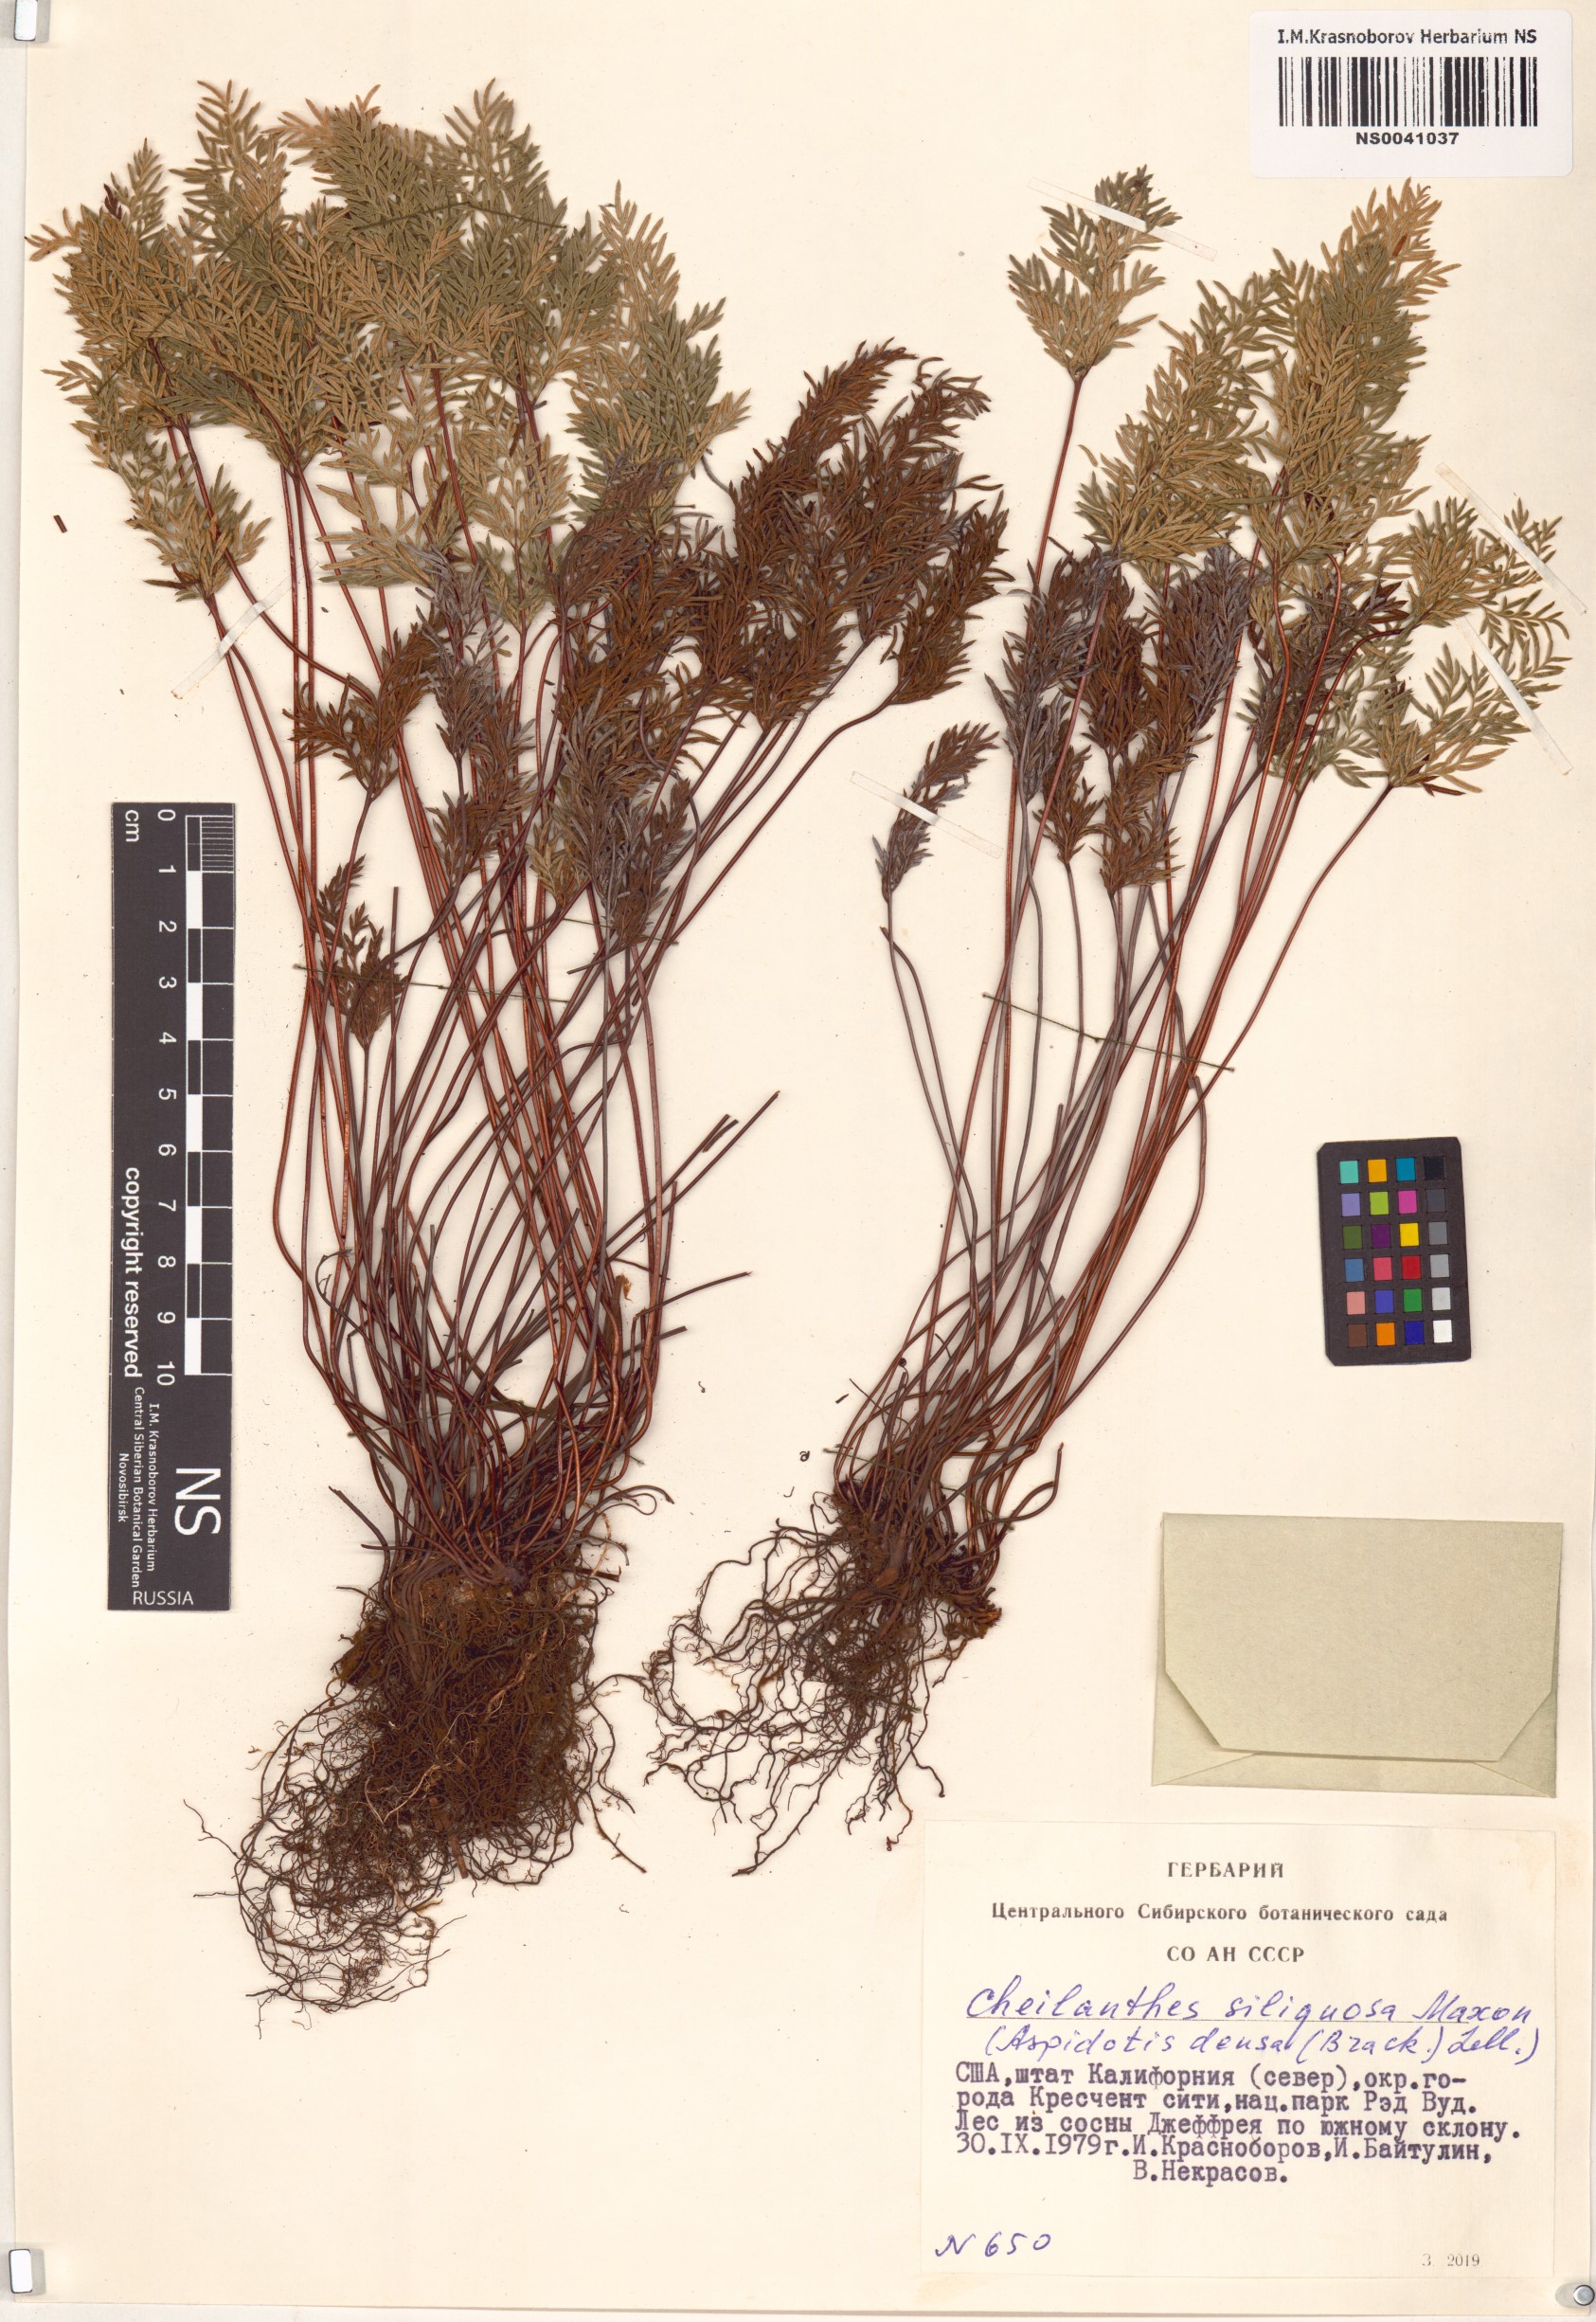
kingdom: Plantae
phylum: Tracheophyta
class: Polypodiopsida
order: Polypodiales
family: Pteridaceae
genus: Aspidotis
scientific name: Aspidotis densa
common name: Indian's dream
